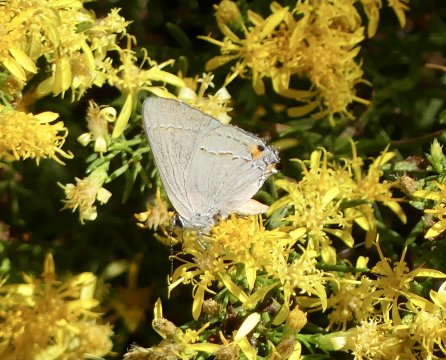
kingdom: Animalia
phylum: Arthropoda
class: Insecta
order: Lepidoptera
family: Lycaenidae
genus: Strymon
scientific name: Strymon melinus
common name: Gray Hairstreak
